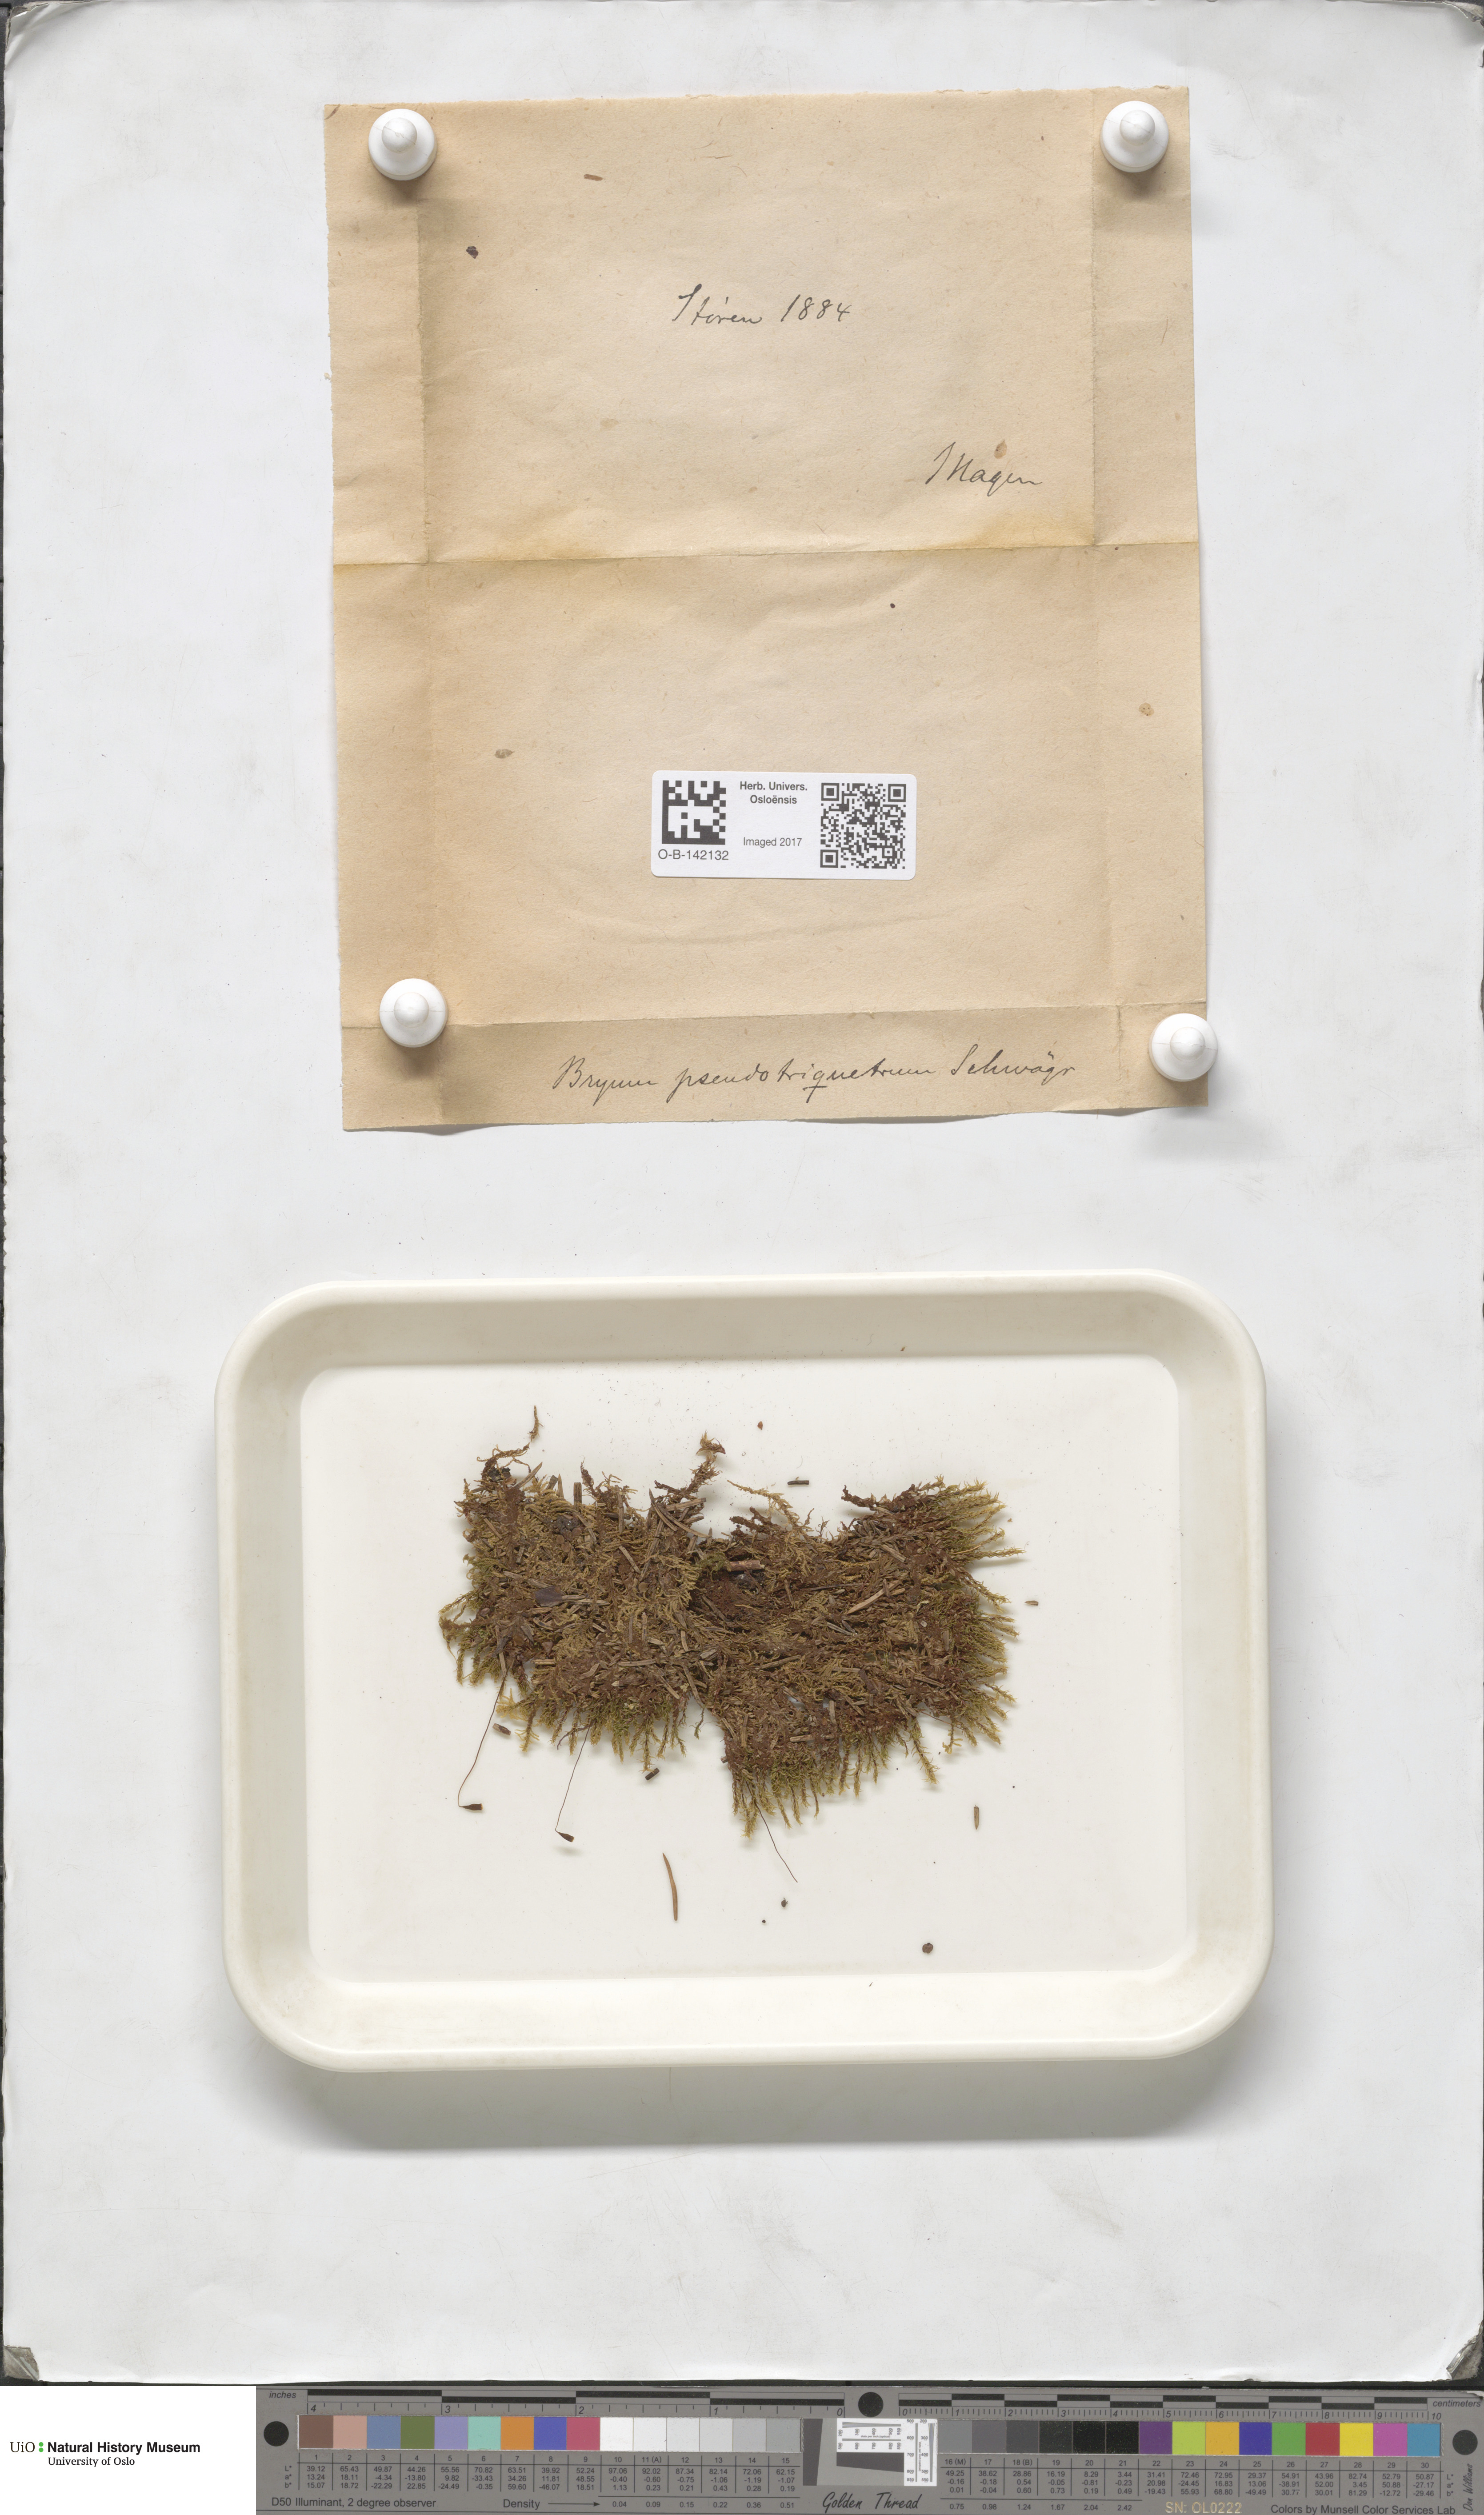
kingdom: Plantae
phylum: Bryophyta
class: Bryopsida
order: Bryales
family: Bryaceae
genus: Ptychostomum
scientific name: Ptychostomum pseudotriquetrum
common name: Long-leaved thread moss
